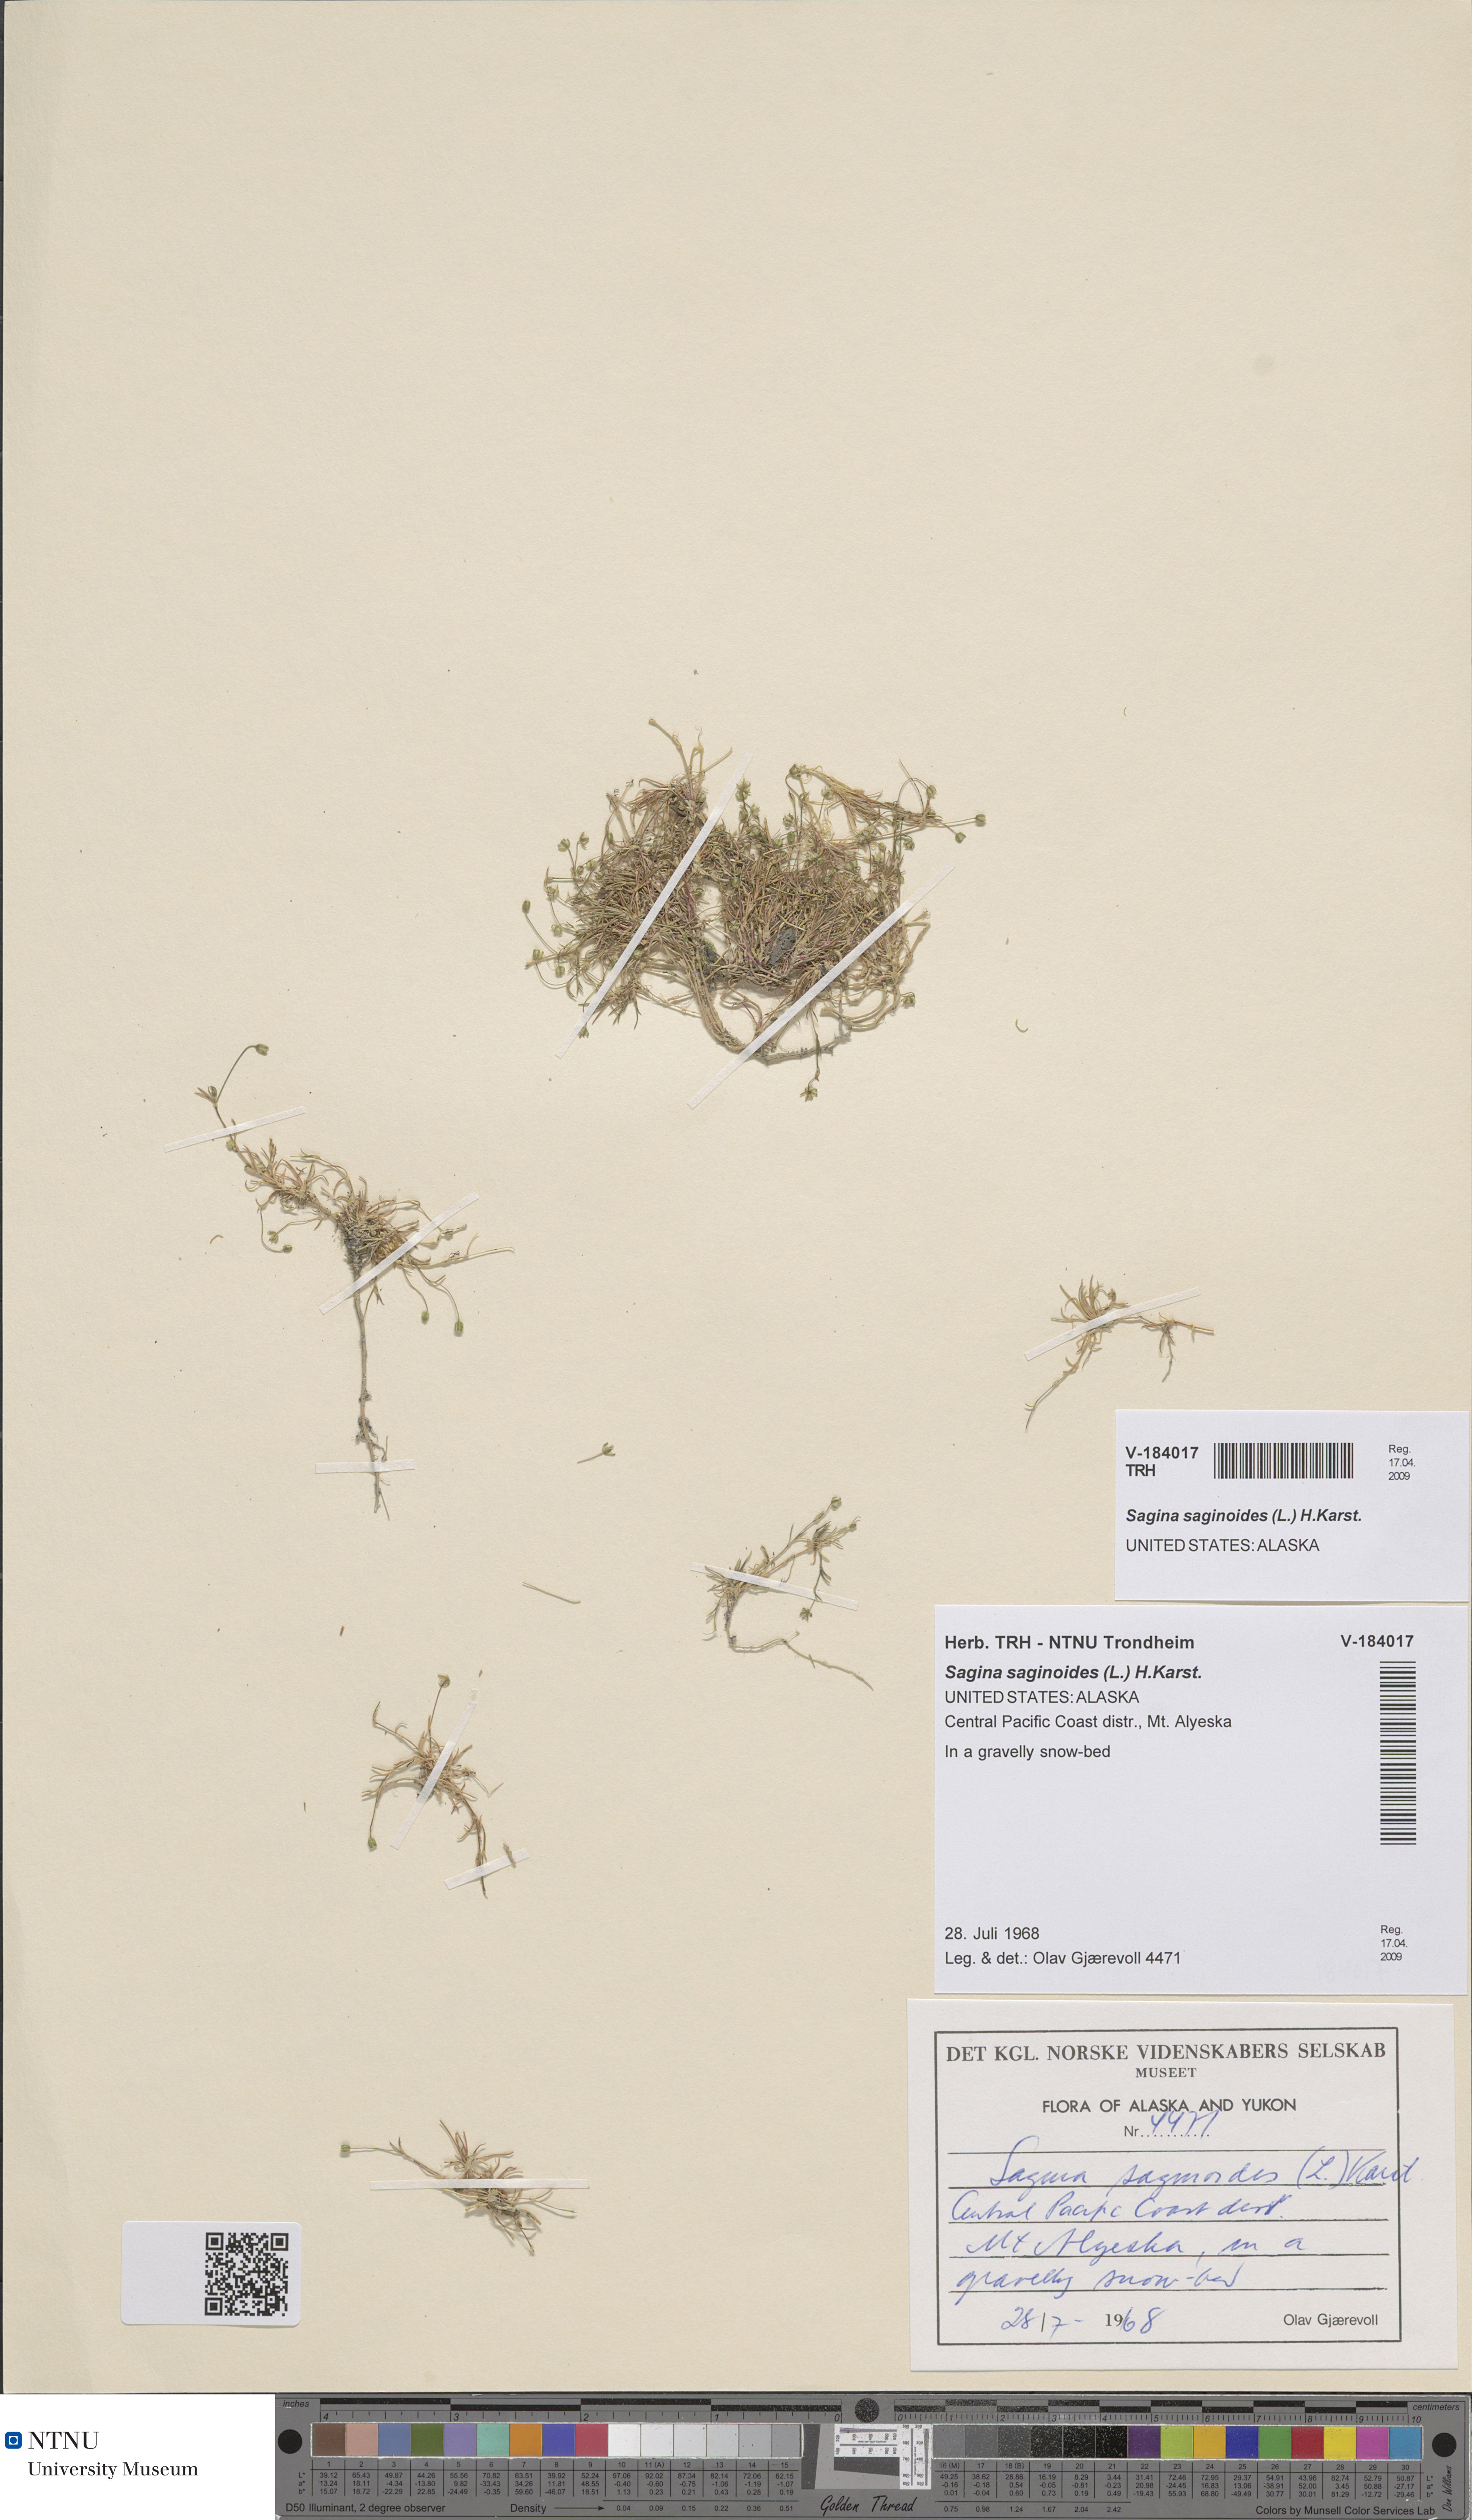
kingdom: Plantae
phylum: Tracheophyta
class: Magnoliopsida
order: Caryophyllales
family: Caryophyllaceae
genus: Sagina
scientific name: Sagina saginoides
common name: Alpine pearlwort
